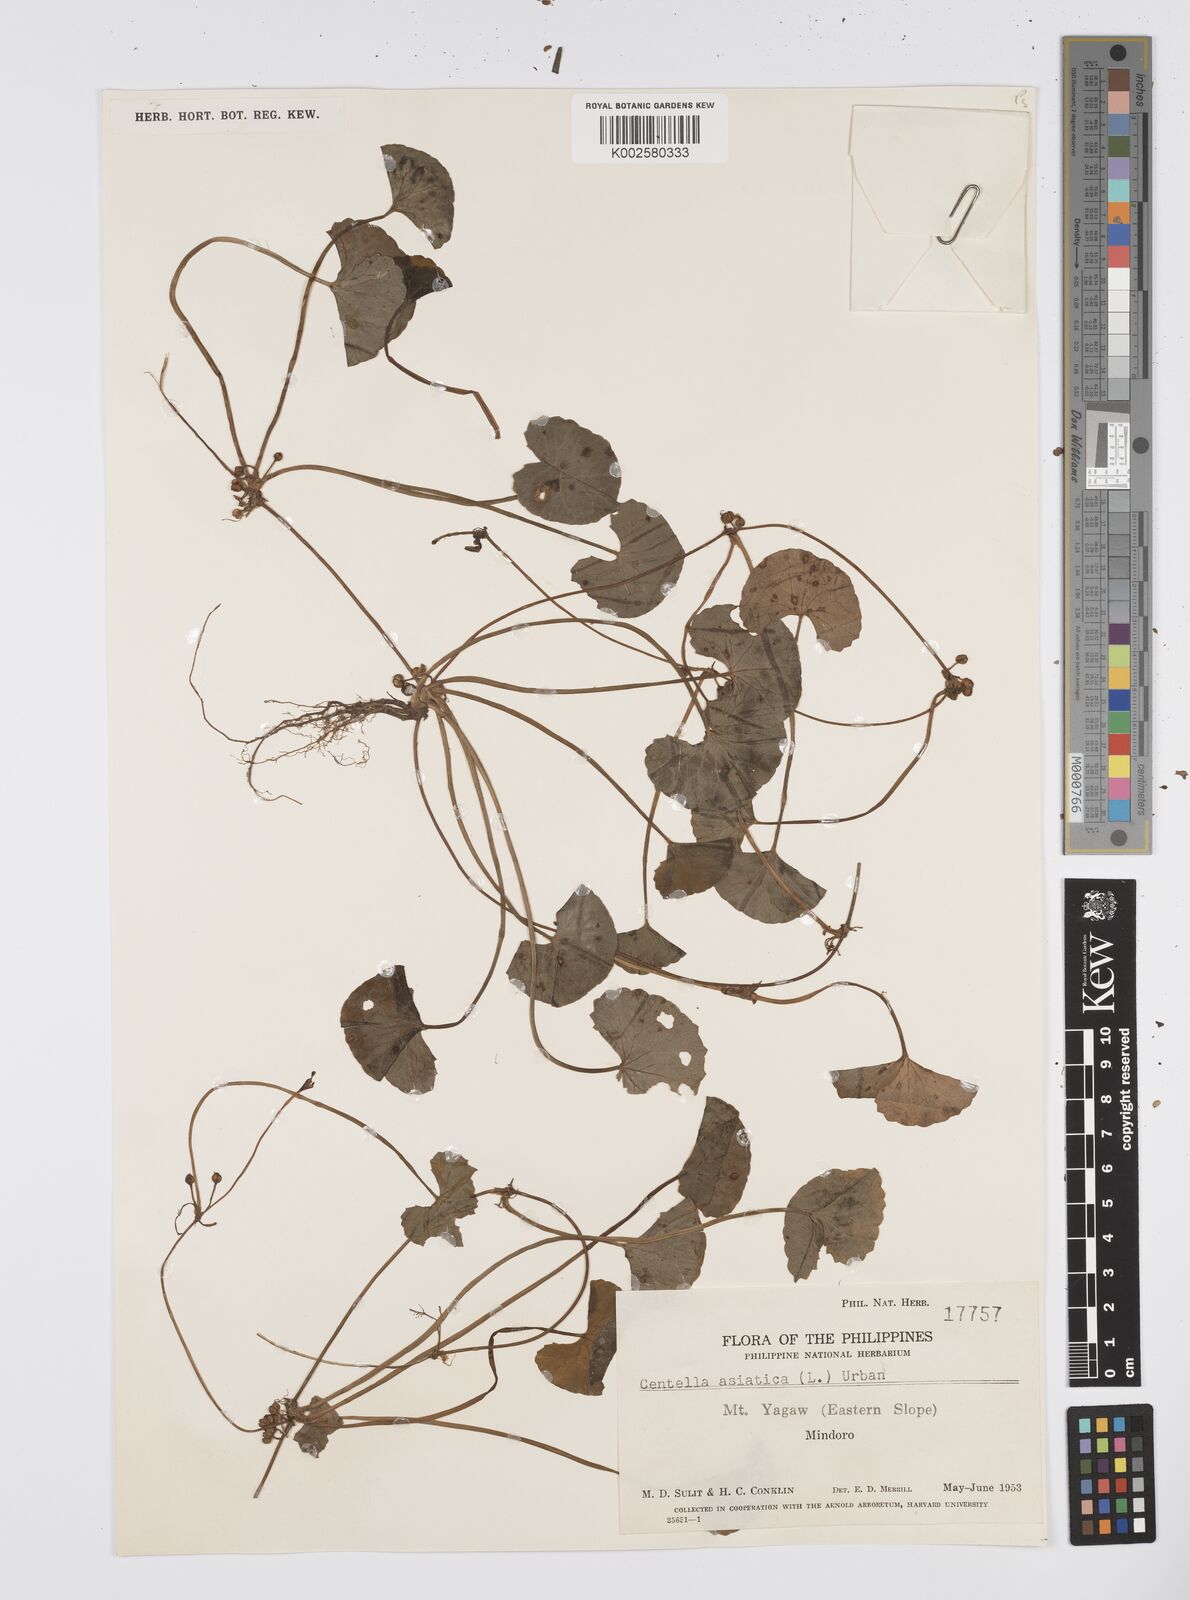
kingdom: Plantae
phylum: Tracheophyta
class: Magnoliopsida
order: Apiales
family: Apiaceae
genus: Centella
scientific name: Centella asiatica
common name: Spadeleaf
